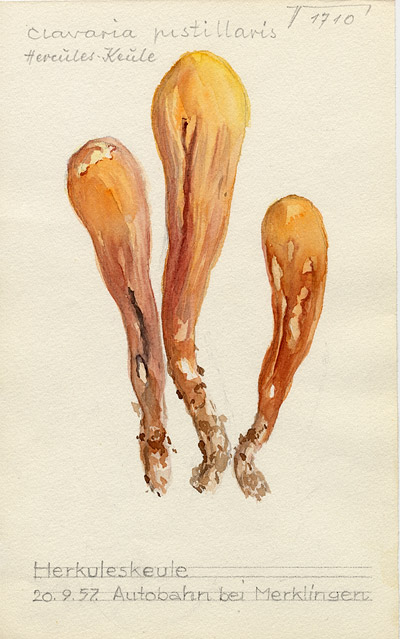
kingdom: Fungi
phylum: Basidiomycota
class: Agaricomycetes
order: Gomphales
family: Clavariadelphaceae
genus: Clavariadelphus
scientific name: Clavariadelphus pistillaris
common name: Giant club
